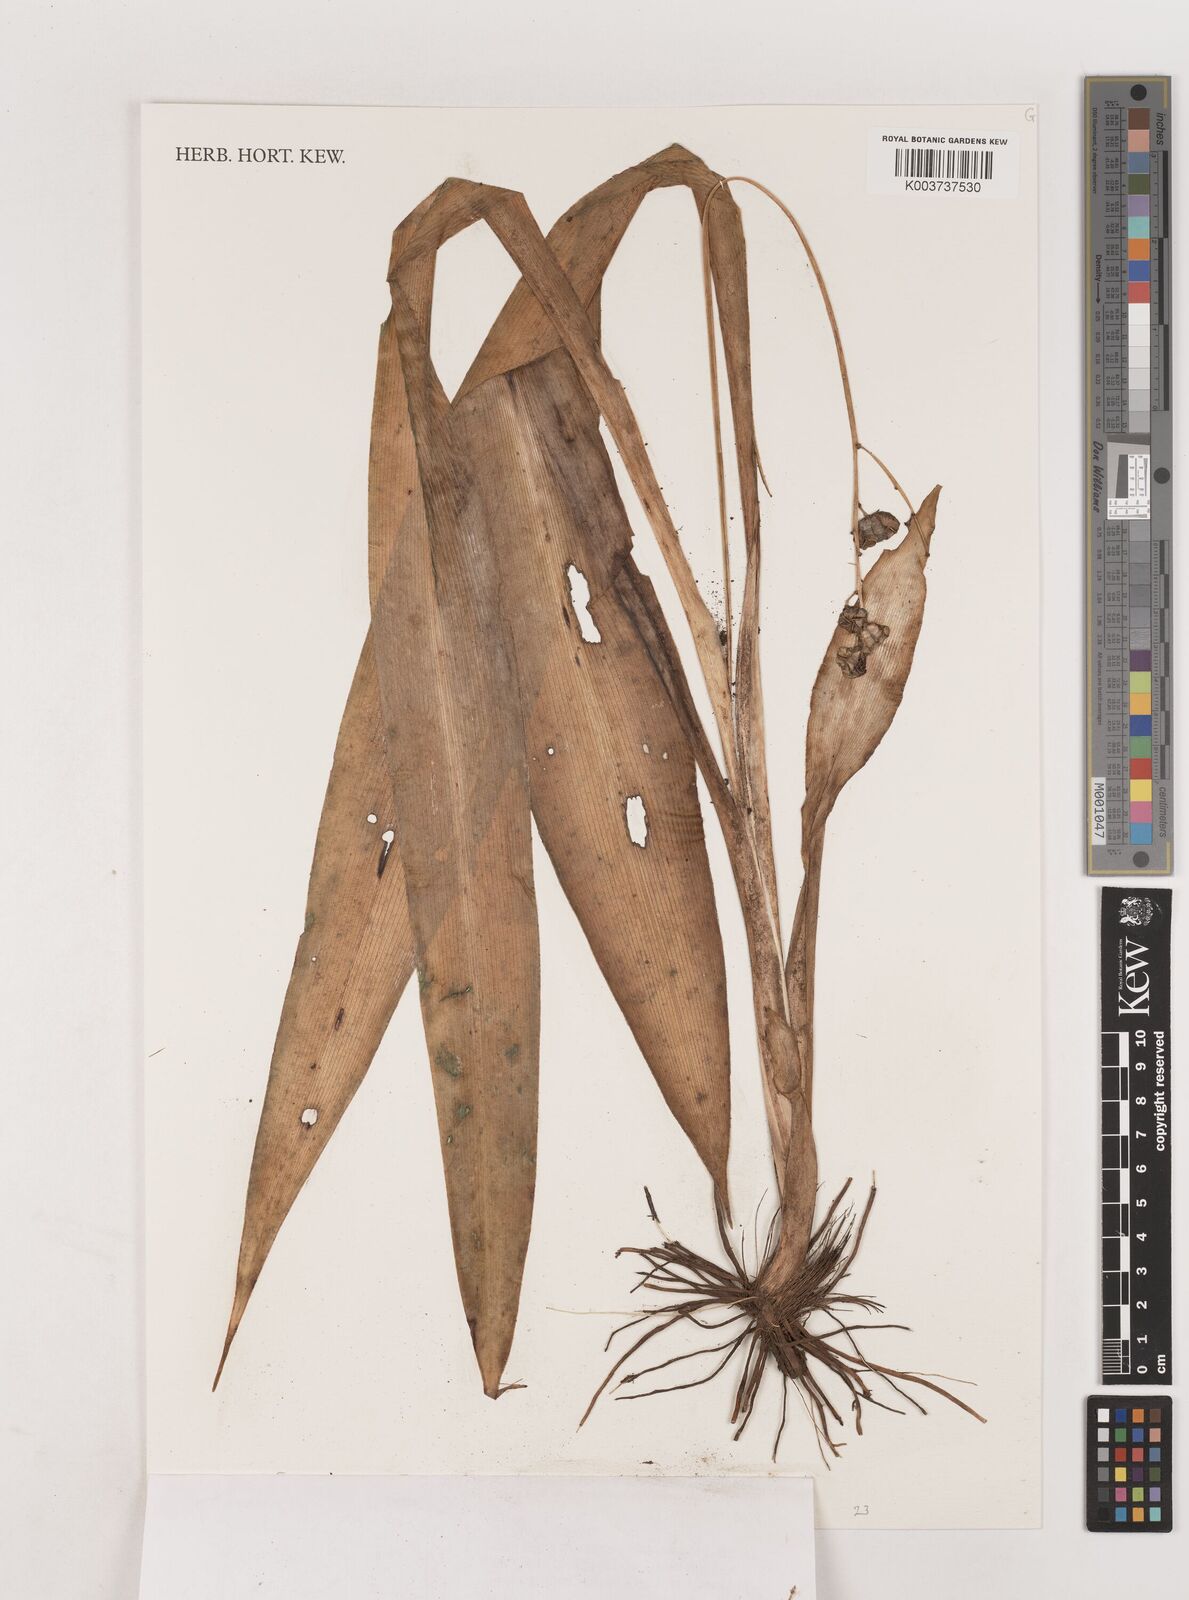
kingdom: Plantae
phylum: Tracheophyta
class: Liliopsida
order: Asparagales
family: Asparagaceae
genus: Chlorophytum
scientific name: Chlorophytum blepharophyllum
